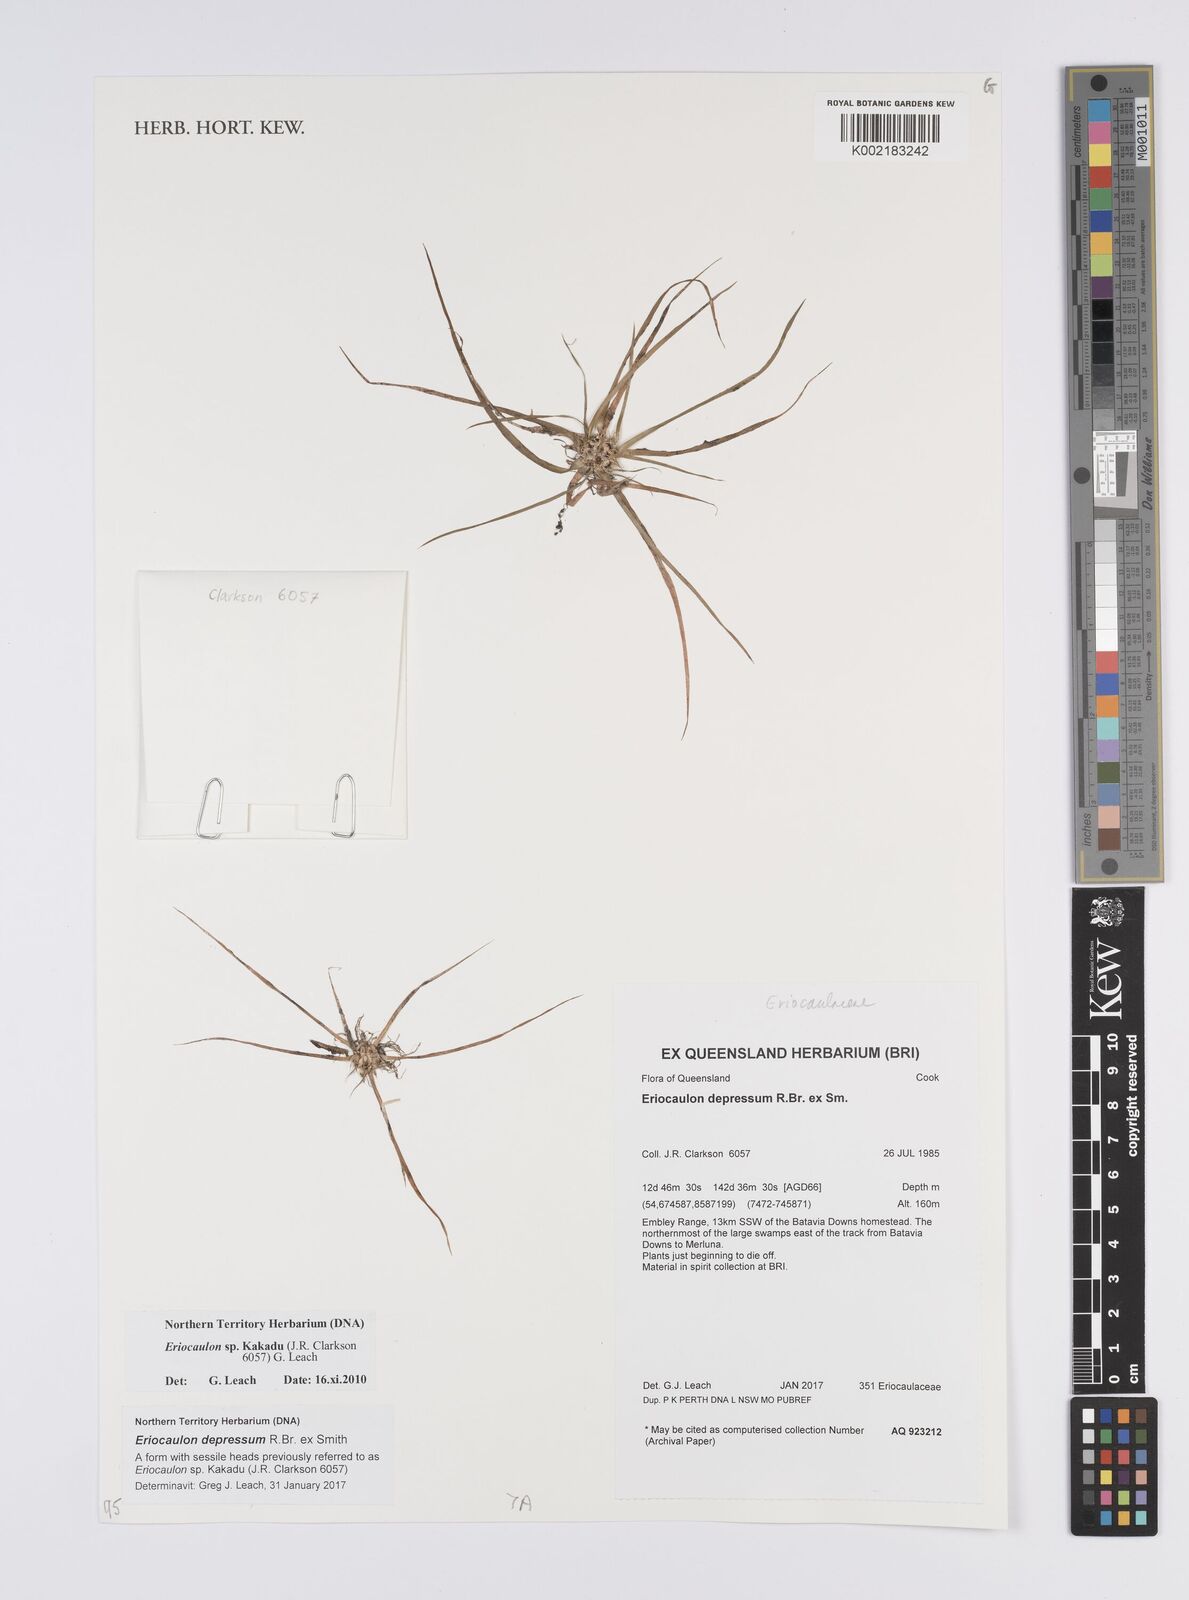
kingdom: Plantae
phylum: Tracheophyta
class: Liliopsida
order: Poales
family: Eriocaulaceae
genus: Eriocaulon
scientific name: Eriocaulon
